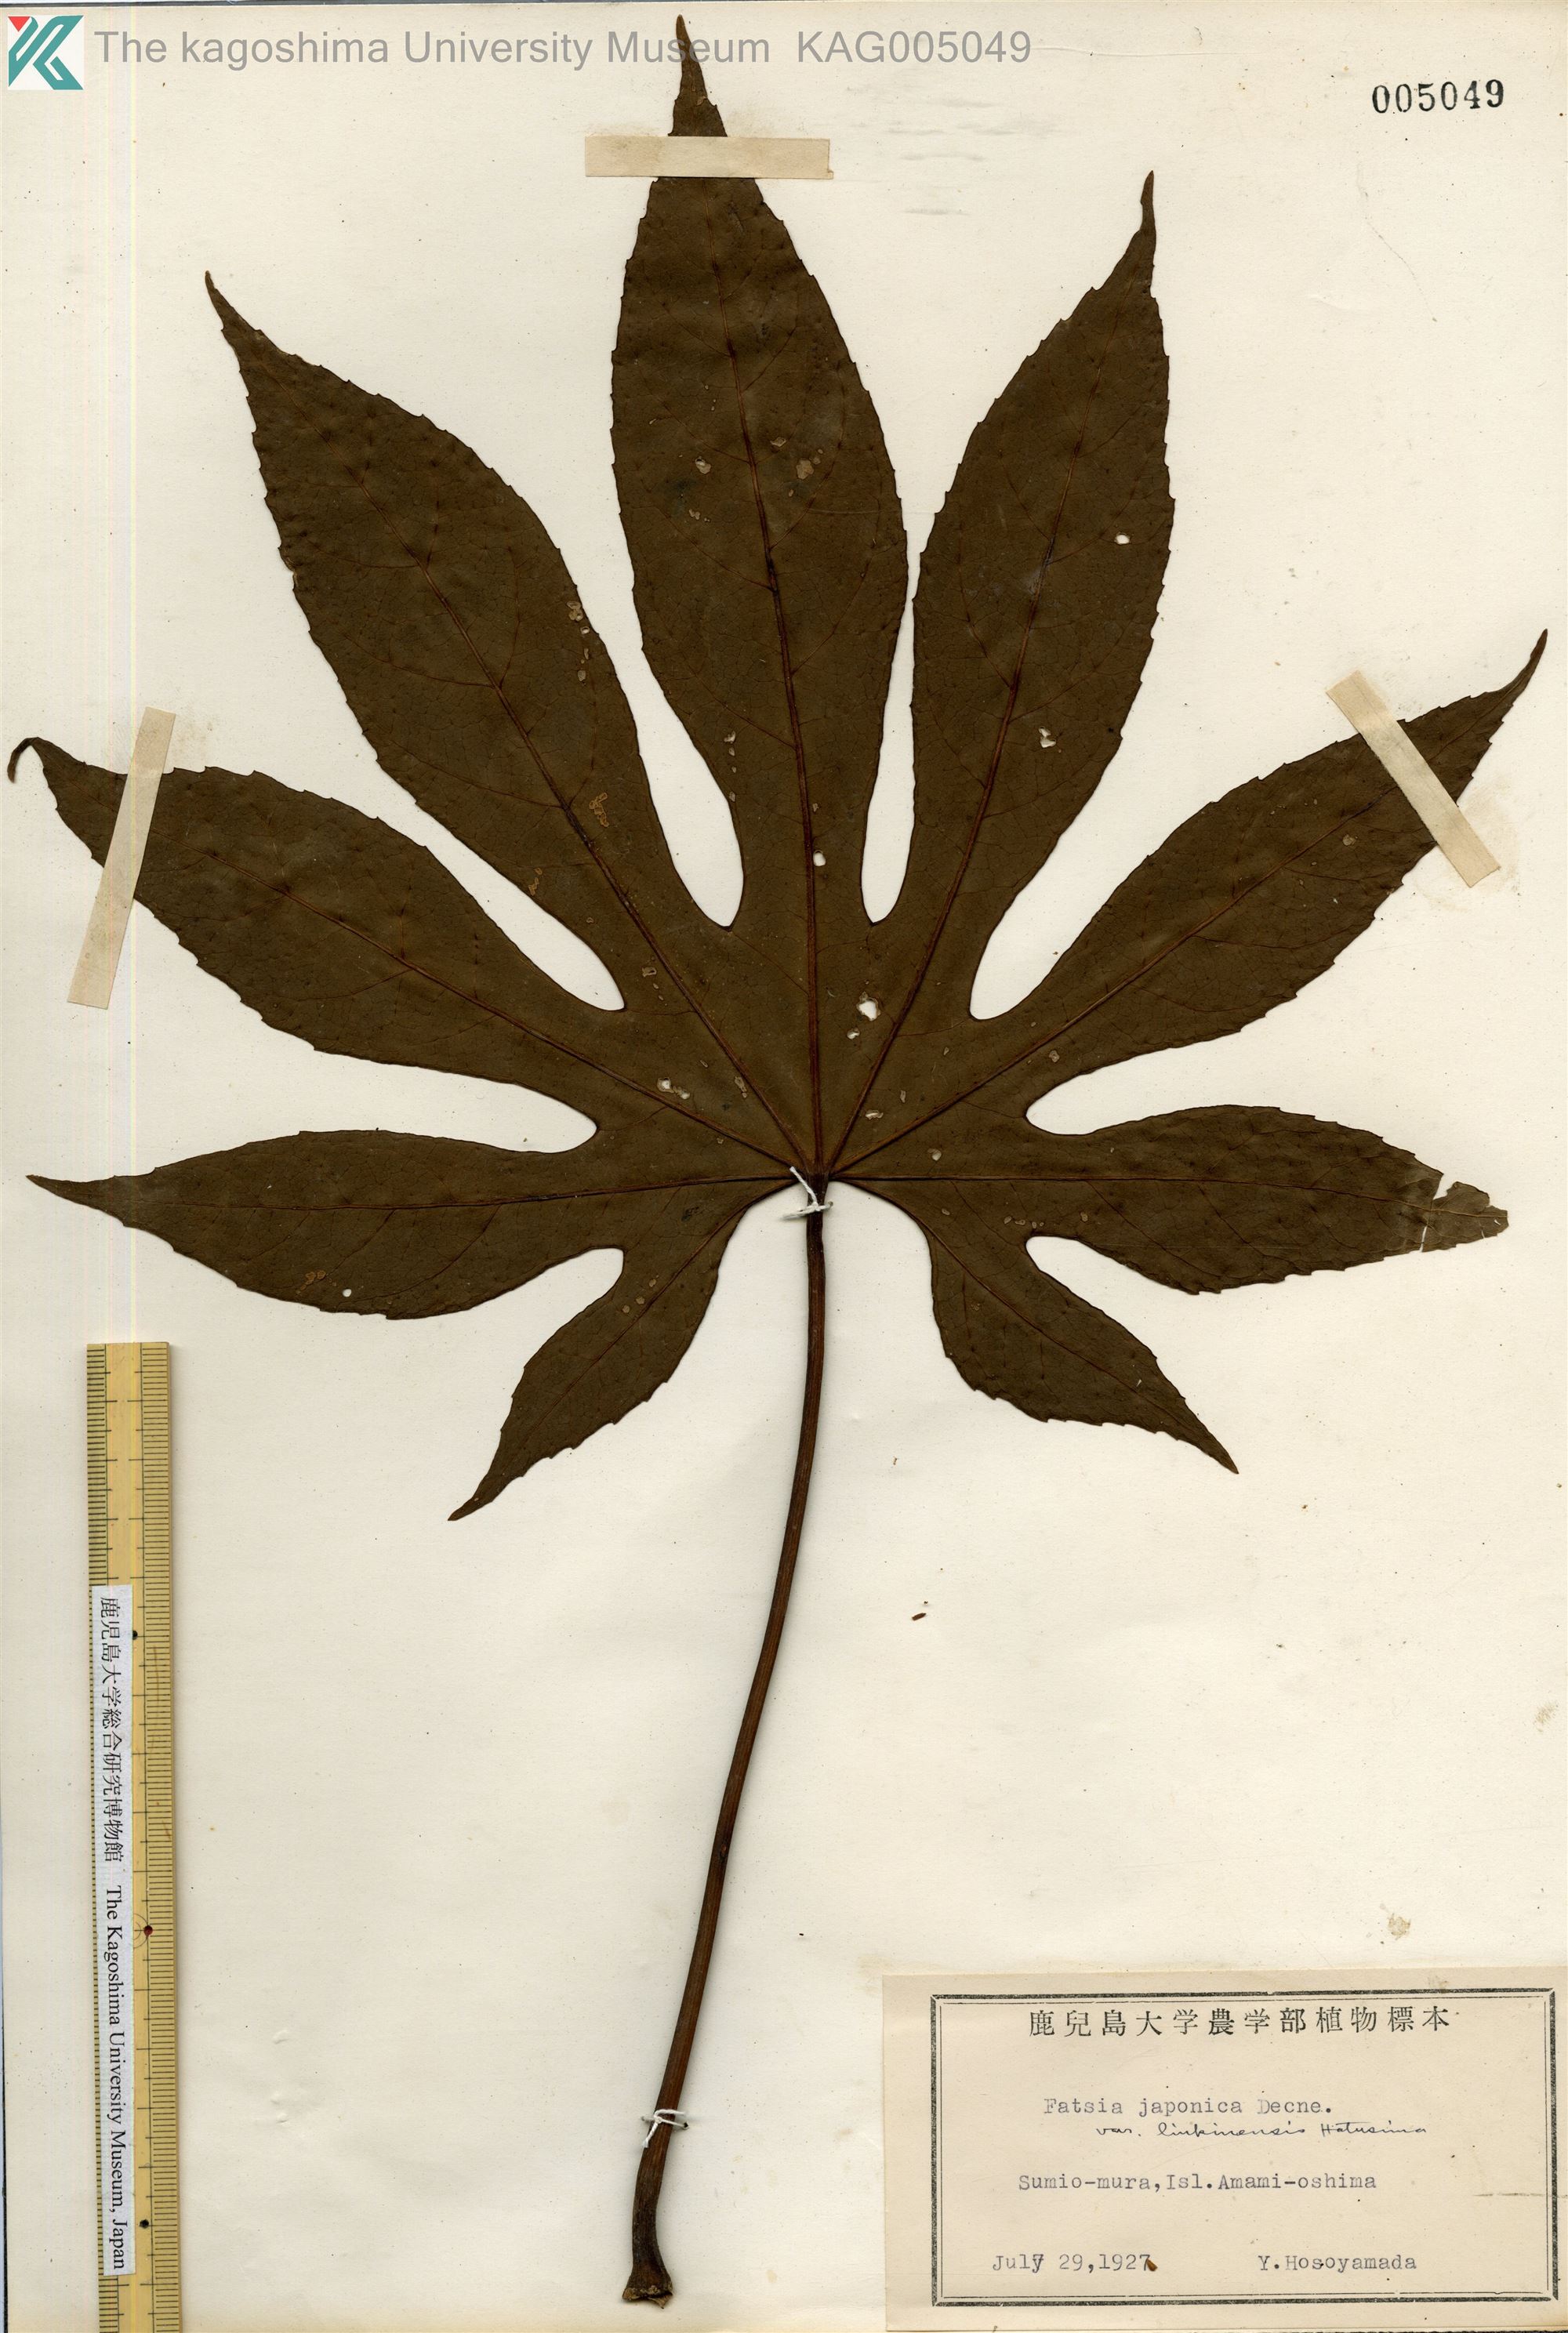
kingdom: Plantae
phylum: Tracheophyta
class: Magnoliopsida
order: Apiales
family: Araliaceae
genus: Fatsia
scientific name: Fatsia japonica
